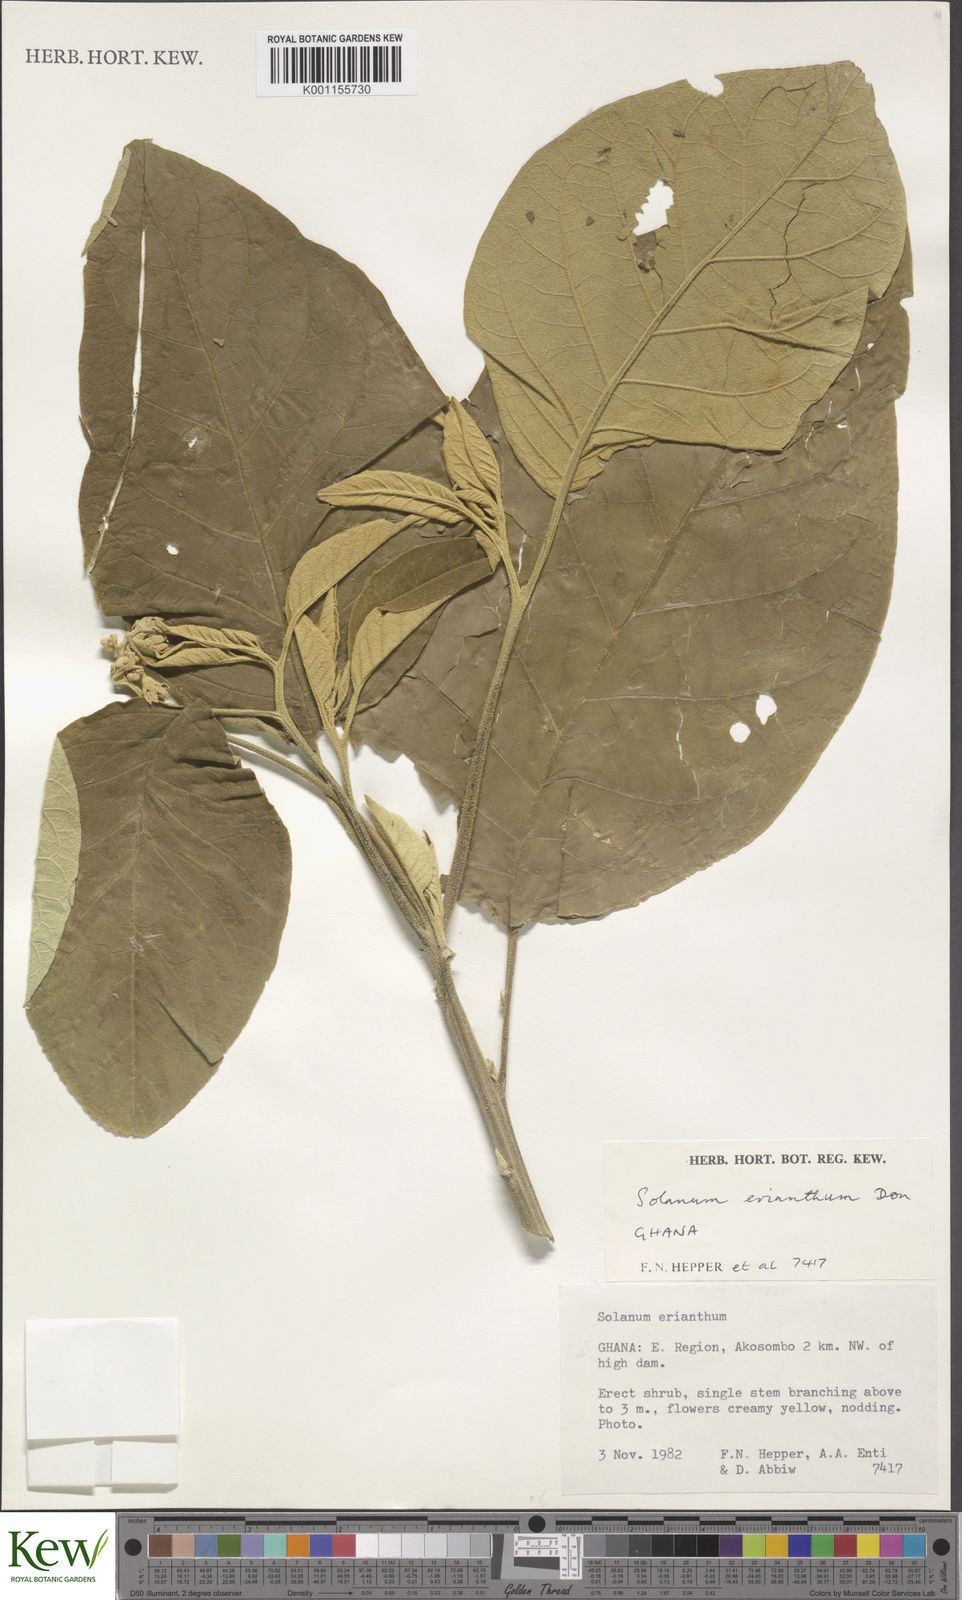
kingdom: Plantae
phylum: Tracheophyta
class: Magnoliopsida
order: Solanales
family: Solanaceae
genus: Solanum
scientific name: Solanum erianthum
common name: Tobacco-tree
